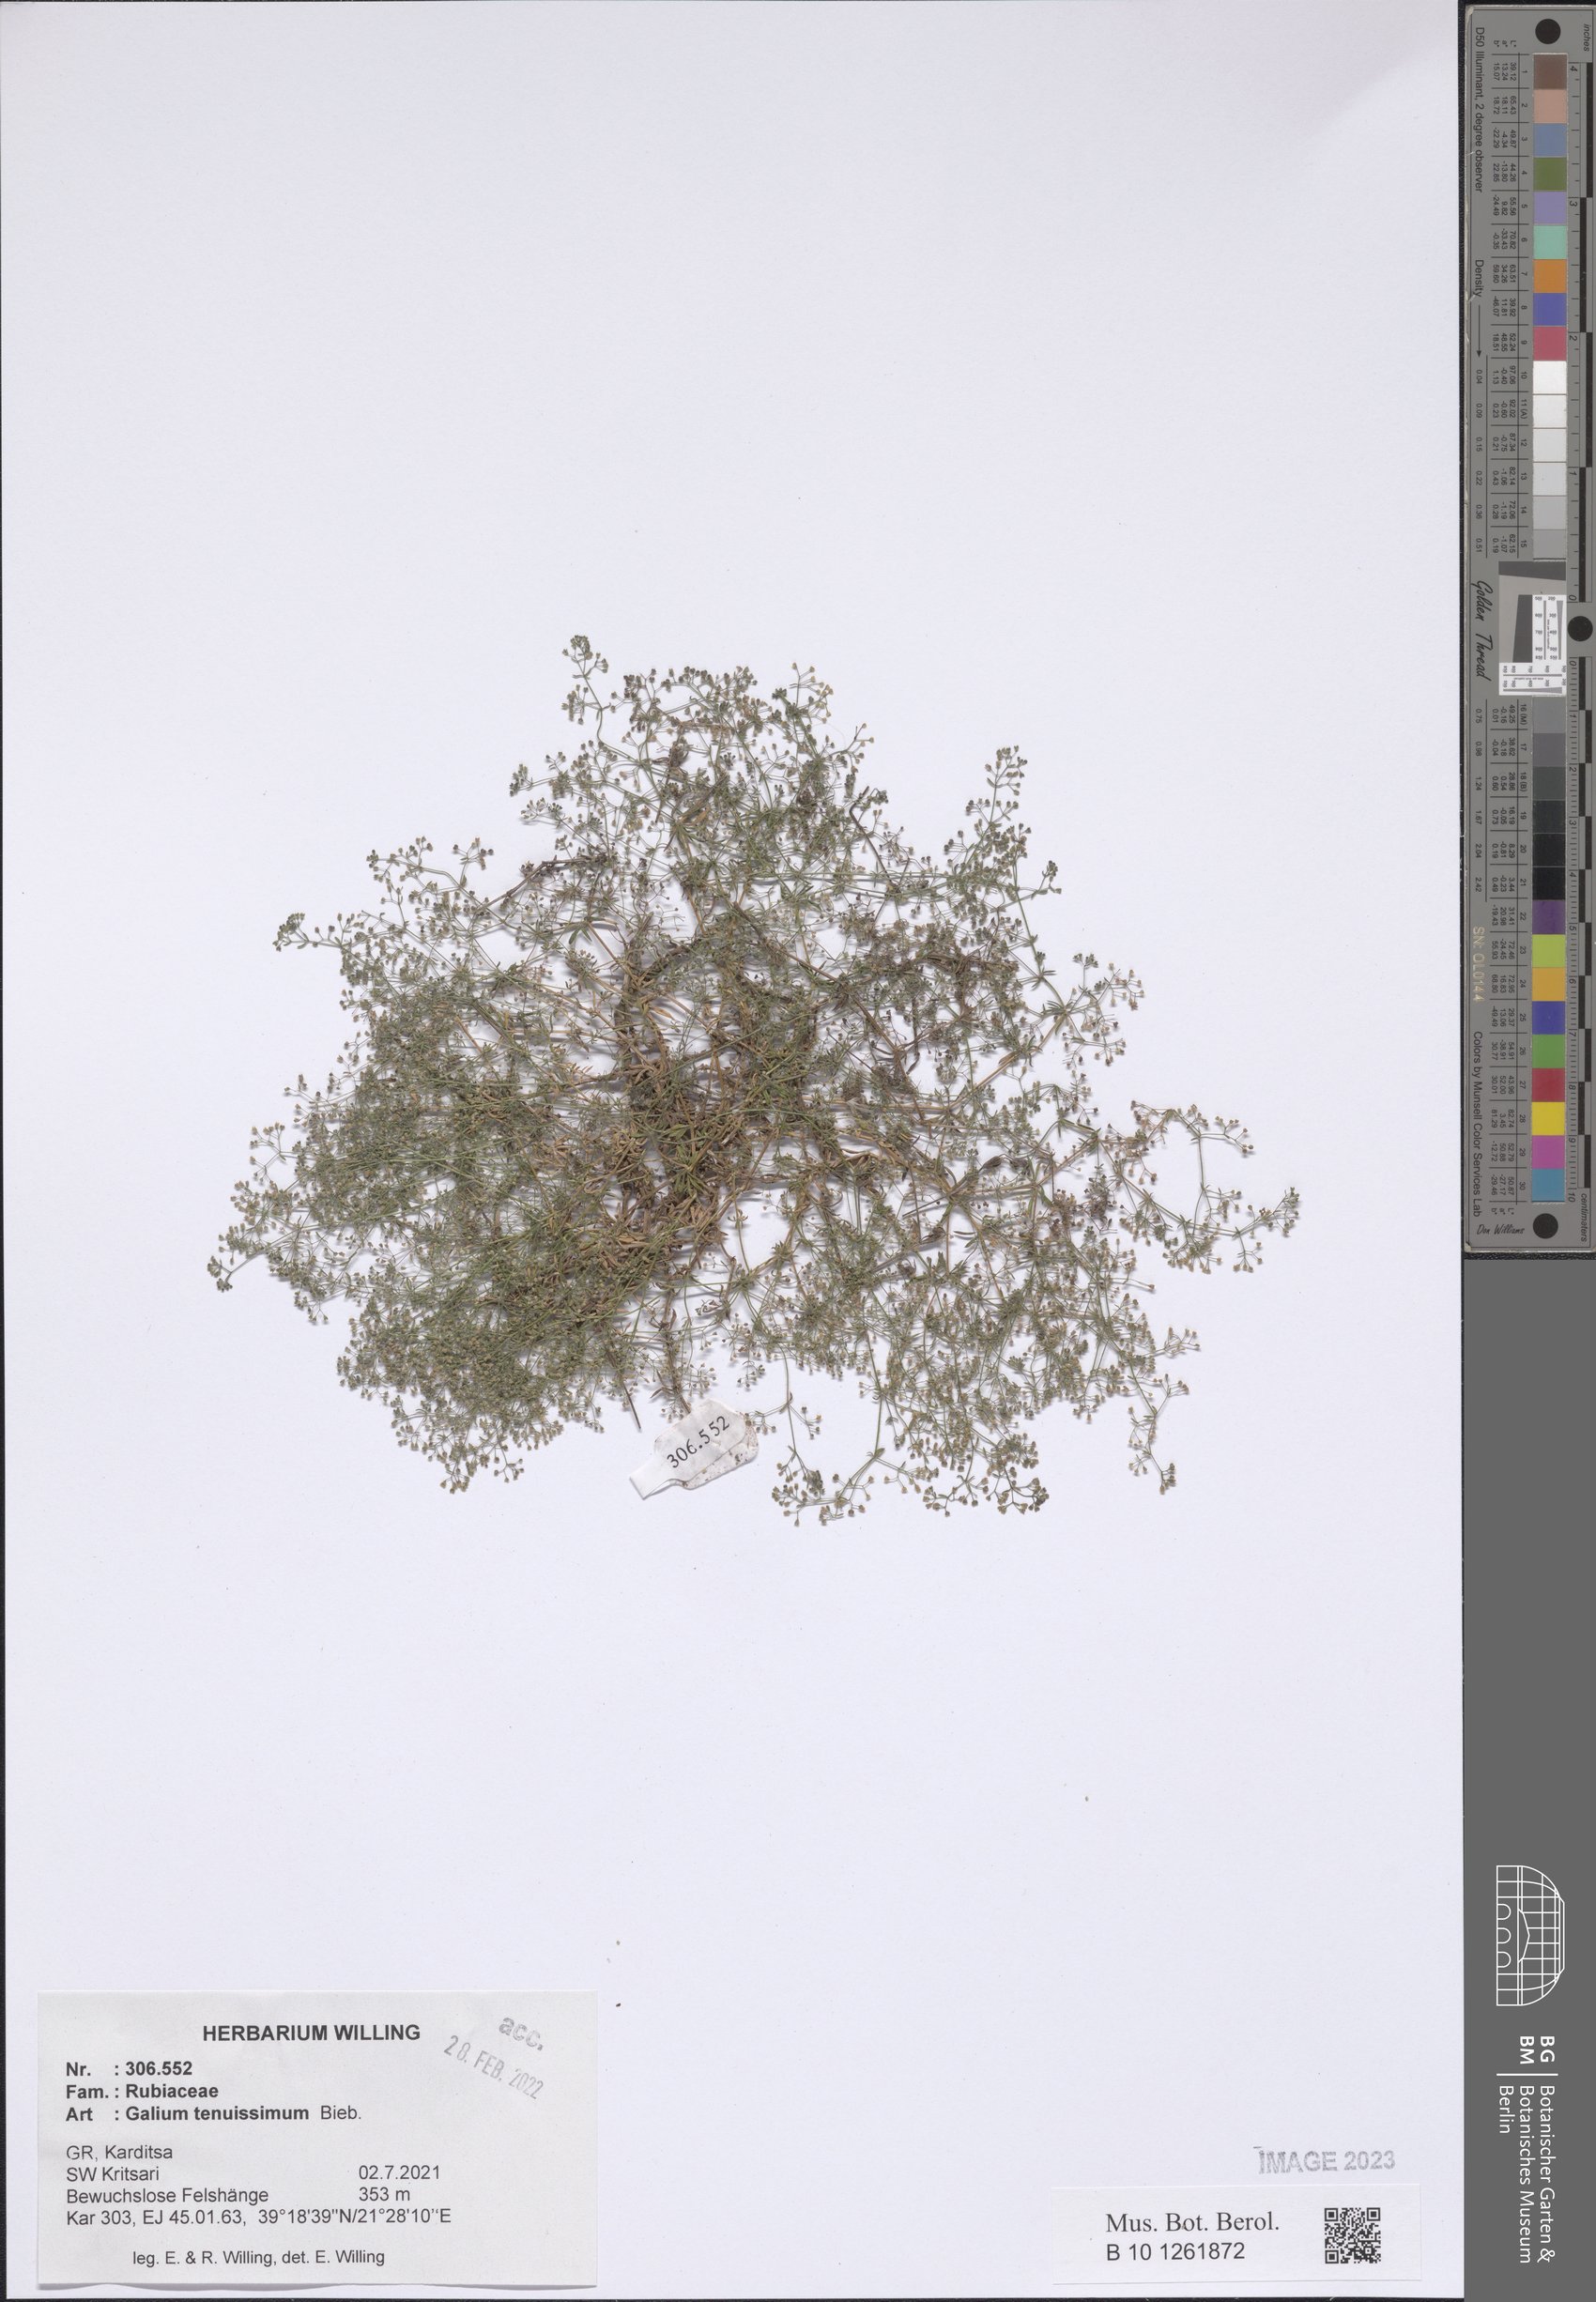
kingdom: Plantae
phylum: Tracheophyta
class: Magnoliopsida
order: Gentianales
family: Rubiaceae
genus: Galium
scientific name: Galium tenuissimum
